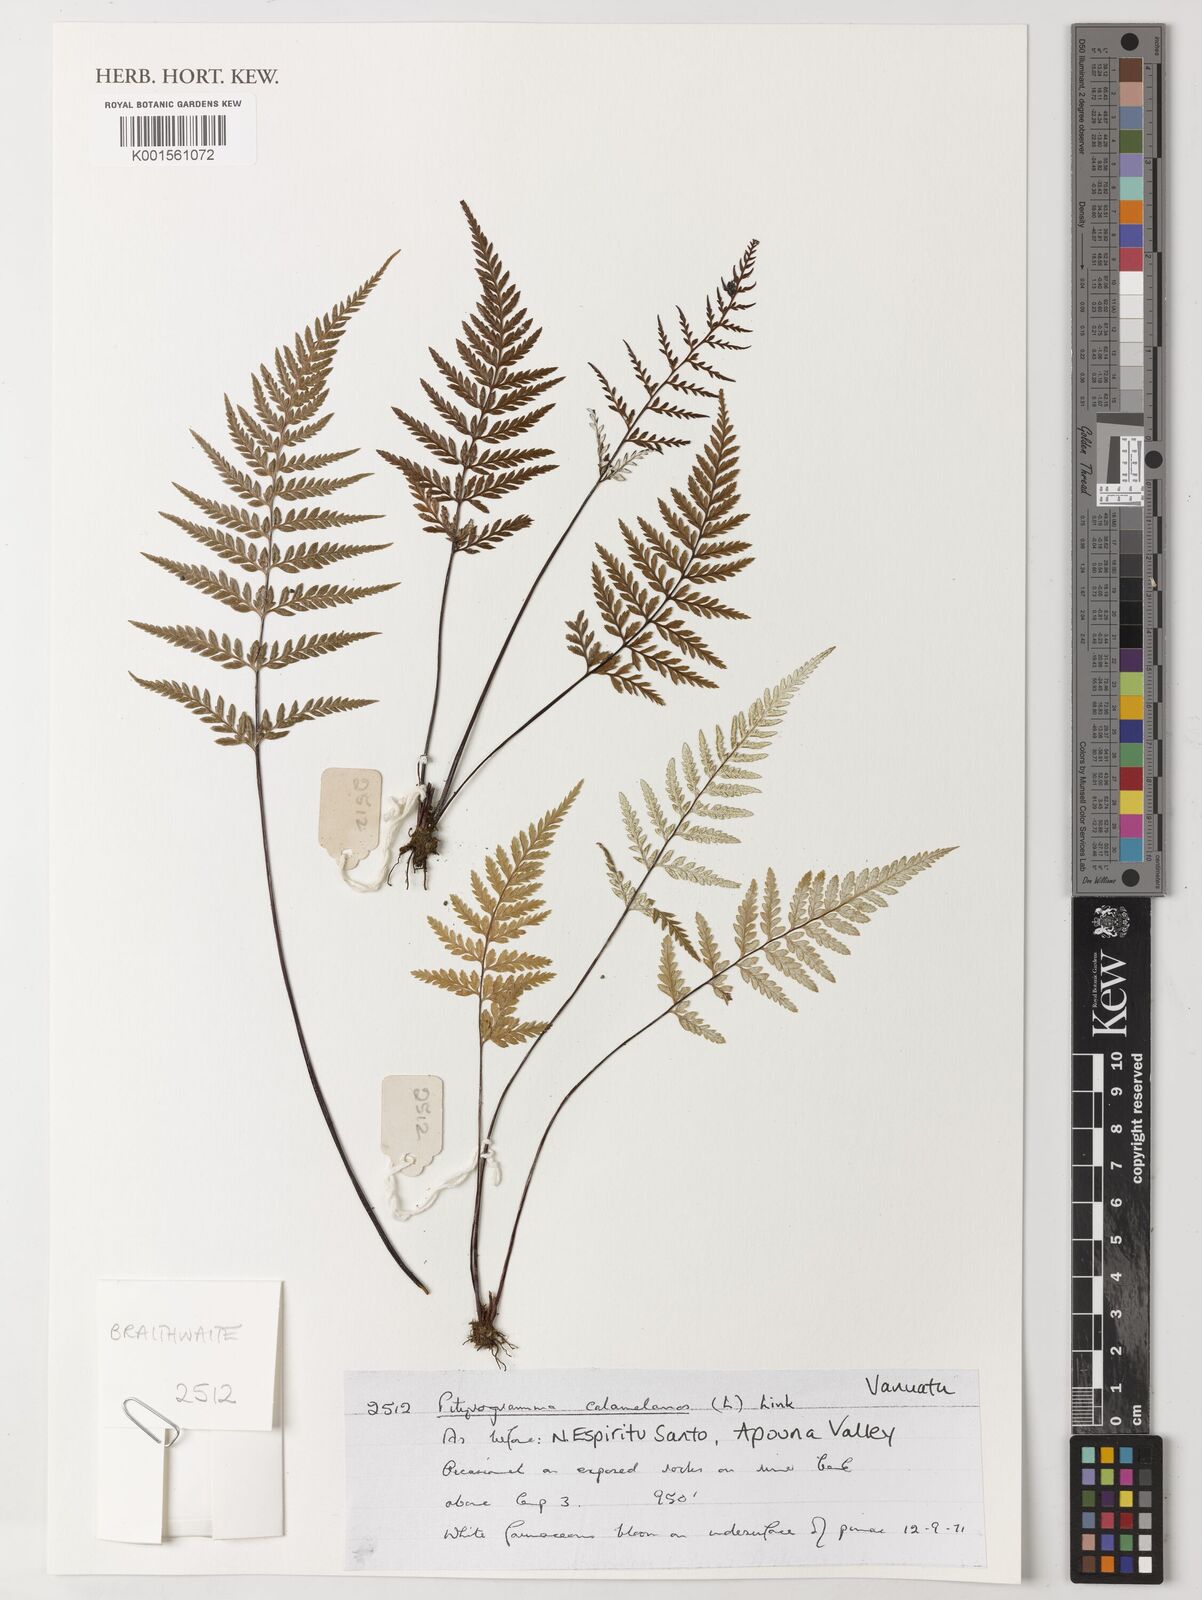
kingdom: Plantae
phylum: Tracheophyta
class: Polypodiopsida
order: Polypodiales
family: Pteridaceae
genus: Pityrogramma
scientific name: Pityrogramma calomelanos
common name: Dixie silverback fern
